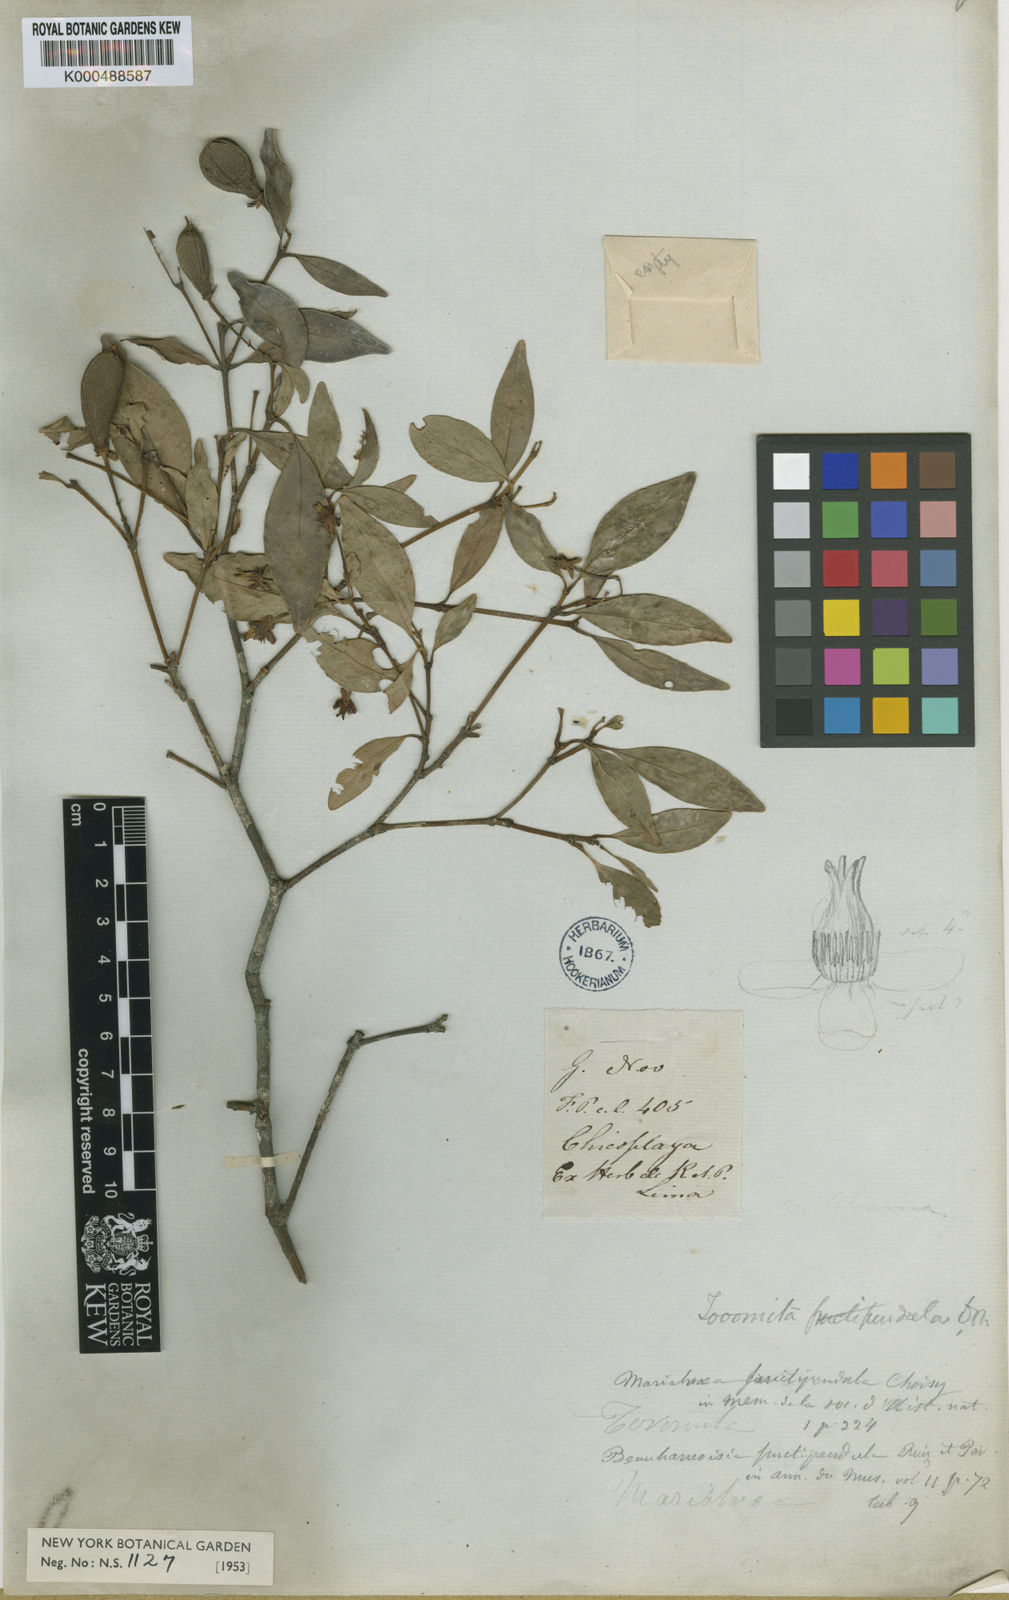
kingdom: Plantae
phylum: Tracheophyta
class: Magnoliopsida
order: Malpighiales
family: Clusiaceae
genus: Tovomita
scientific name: Tovomita
